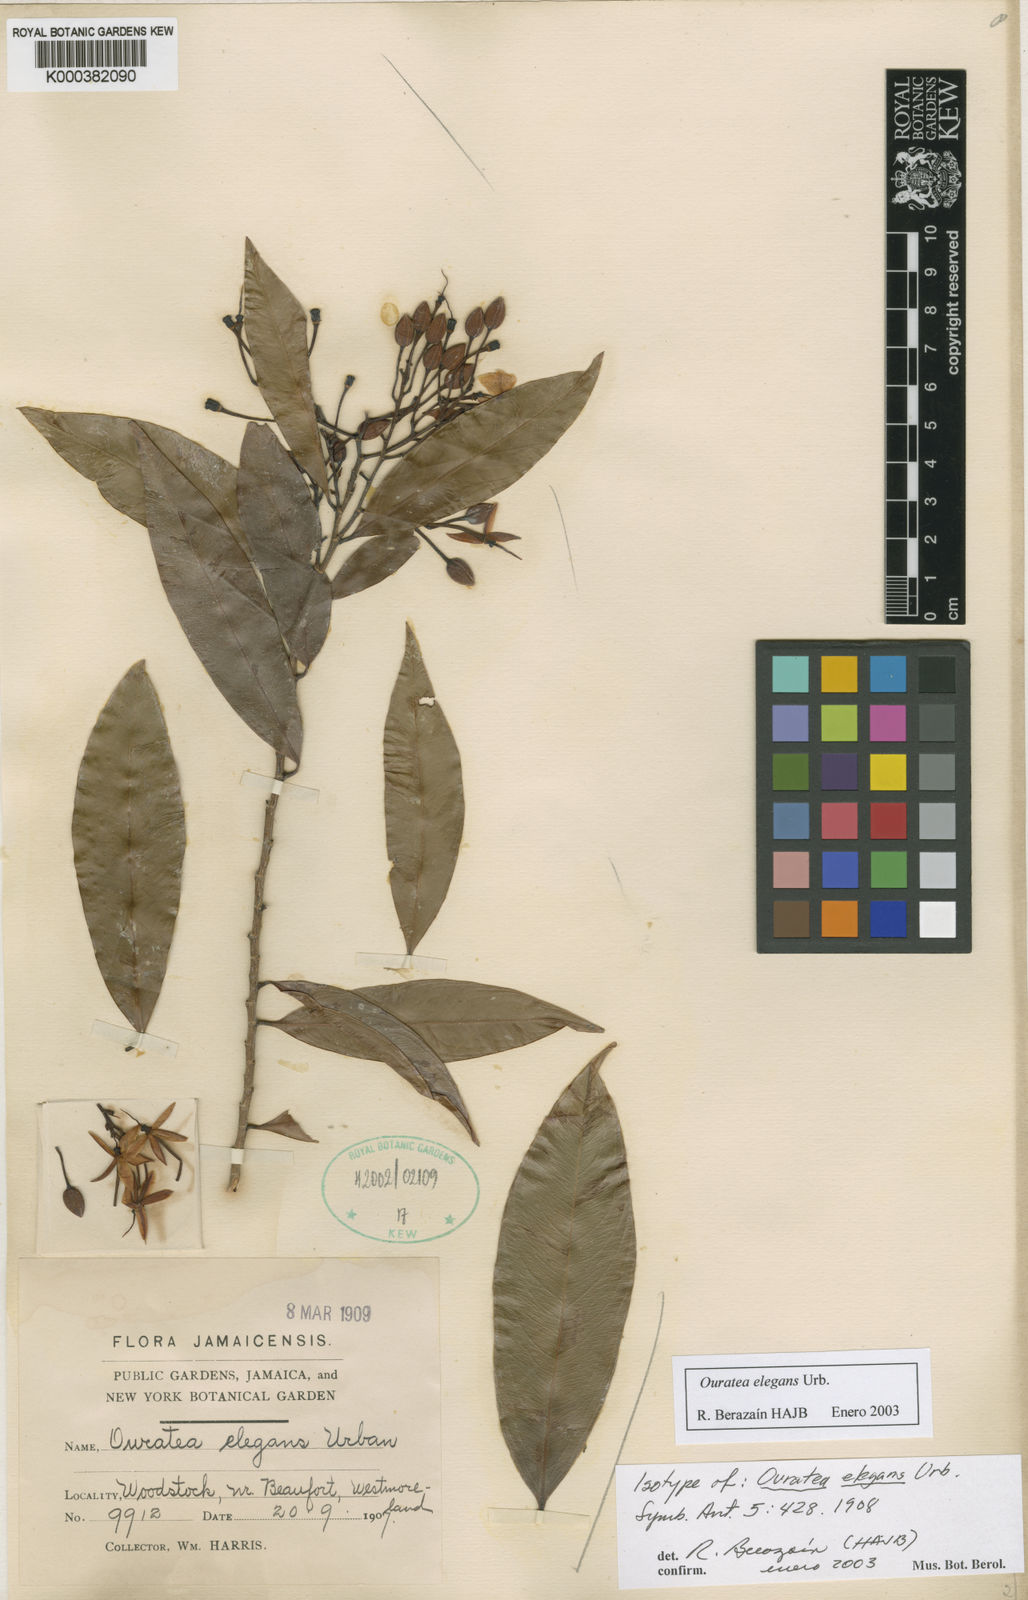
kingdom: Plantae
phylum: Tracheophyta
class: Magnoliopsida
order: Malpighiales
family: Ochnaceae
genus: Ouratea
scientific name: Ouratea elegans
